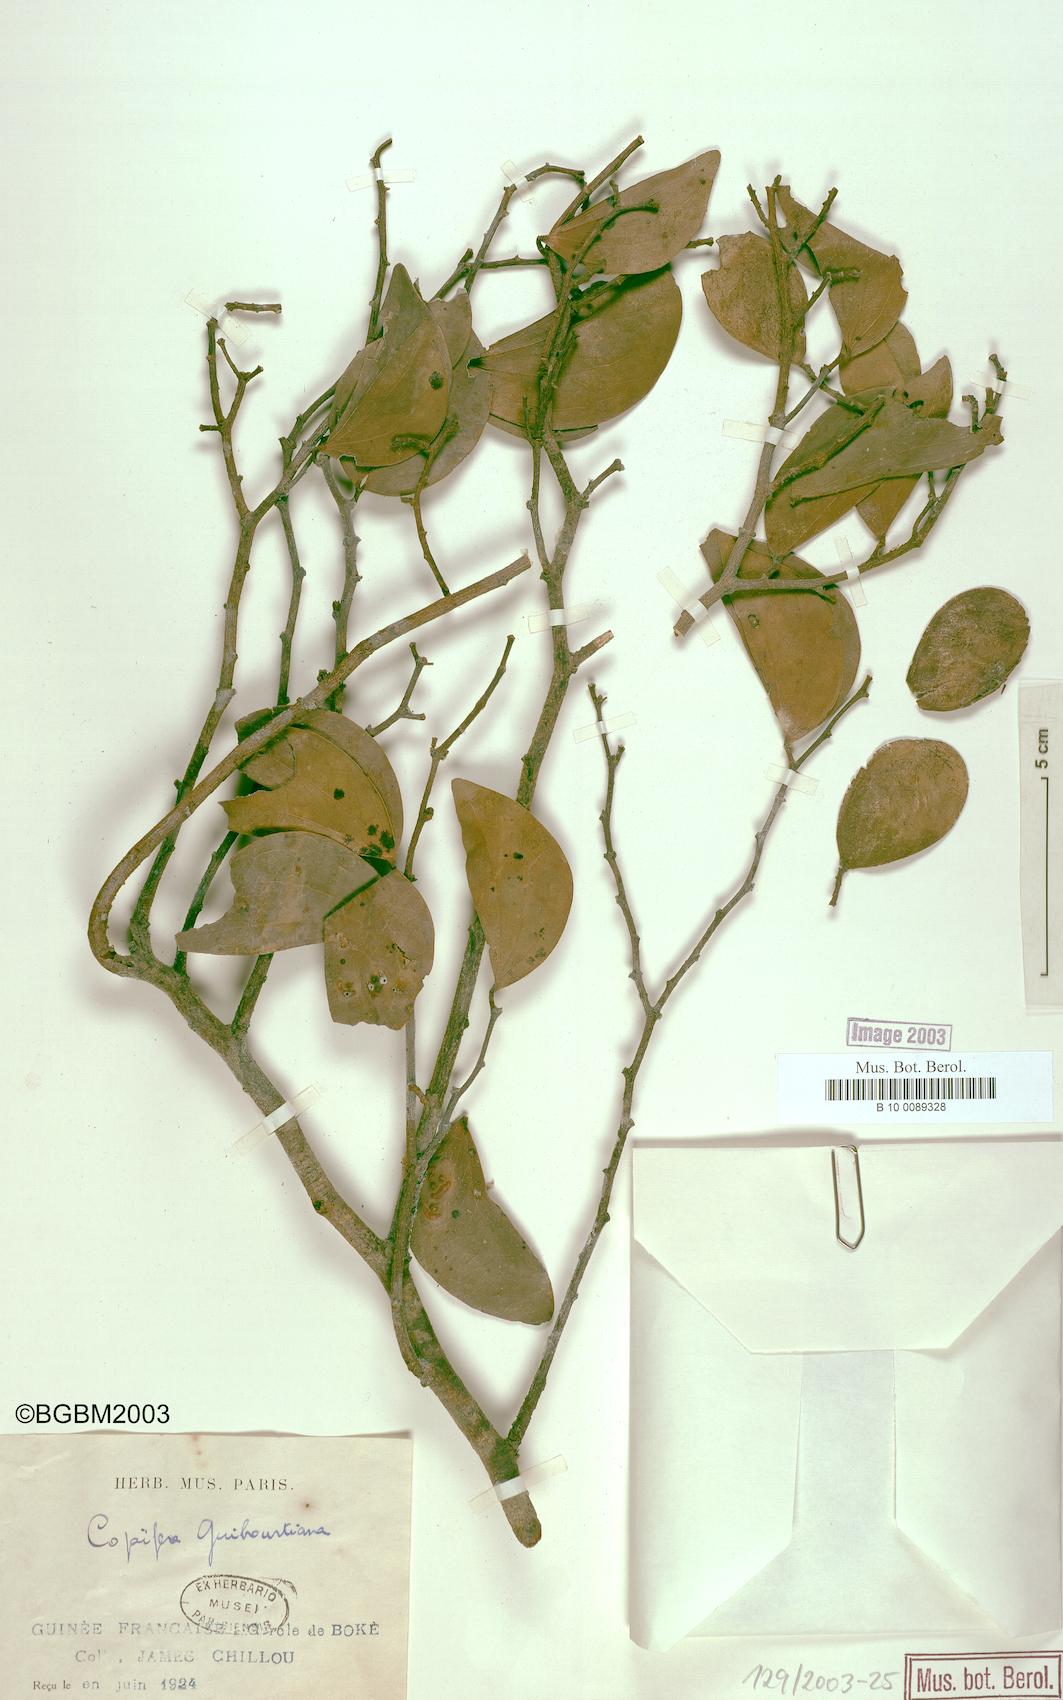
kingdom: Plantae
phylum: Tracheophyta
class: Magnoliopsida
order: Fabales
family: Fabaceae
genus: Guibourtia
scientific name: Guibourtia copallifera
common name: Kobo tree
